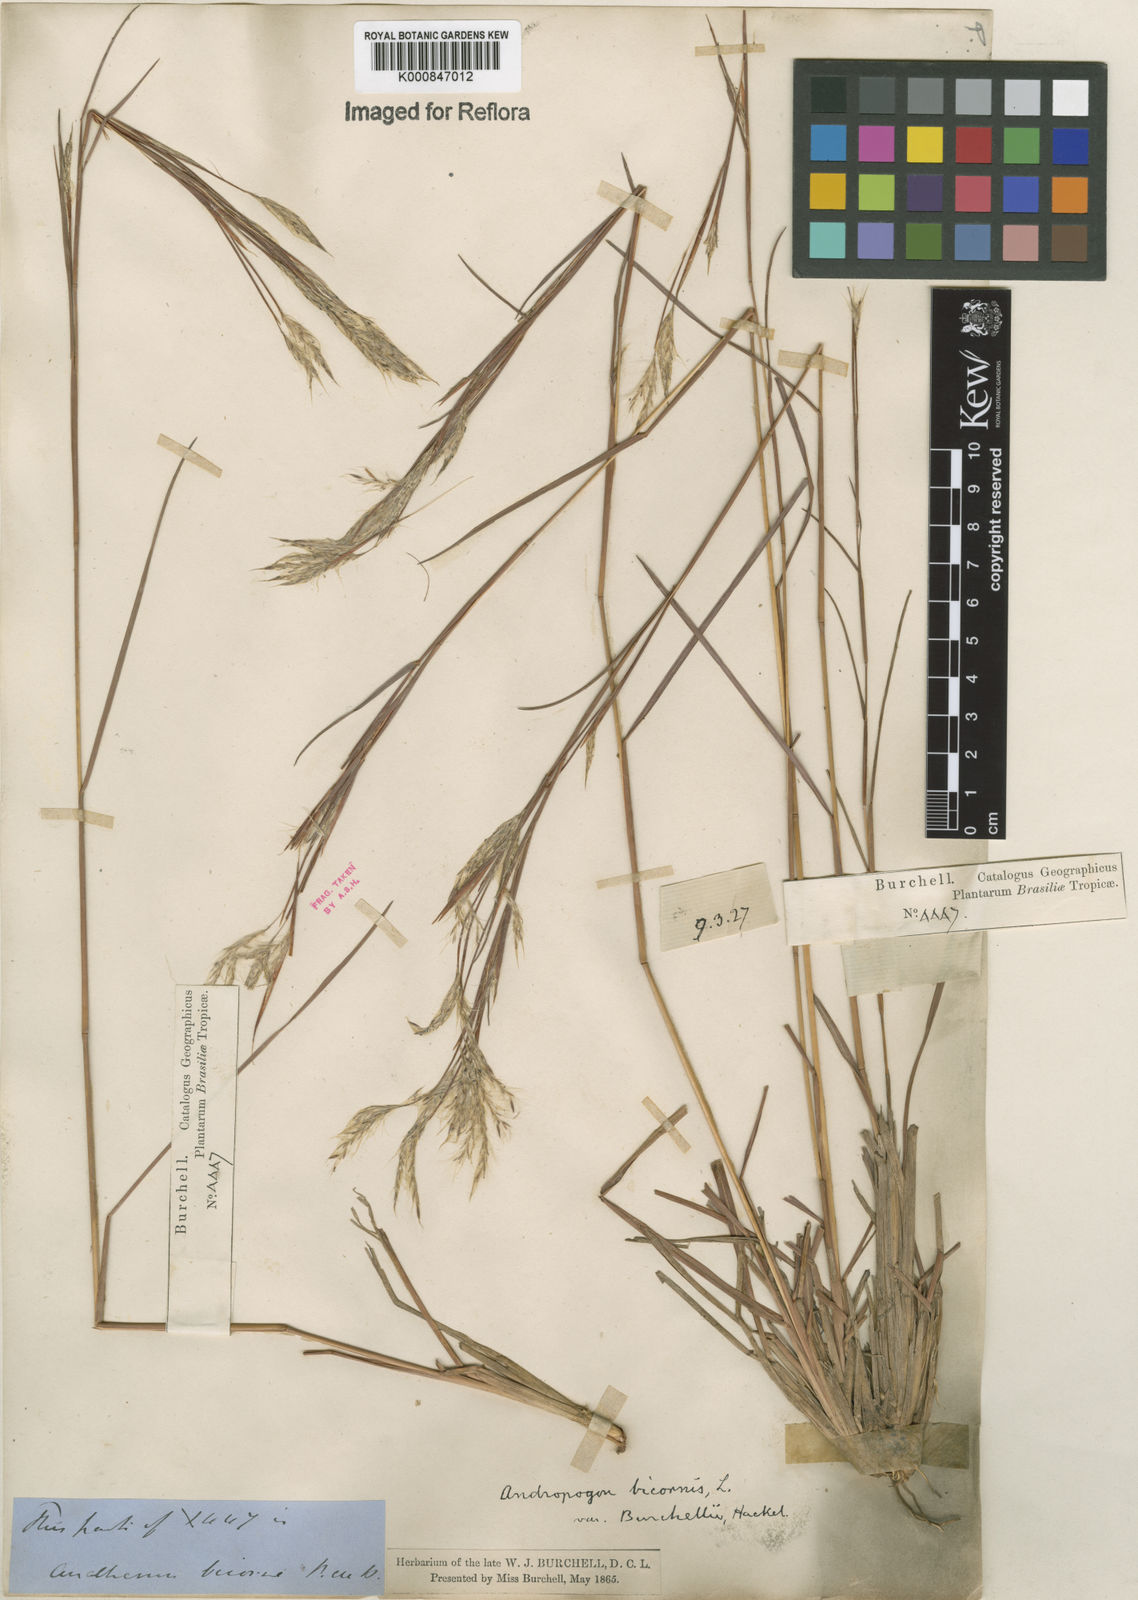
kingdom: Plantae
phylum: Tracheophyta
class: Liliopsida
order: Poales
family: Poaceae
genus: Andropogon
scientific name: Andropogon bicornis
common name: West indian foxtail grass
